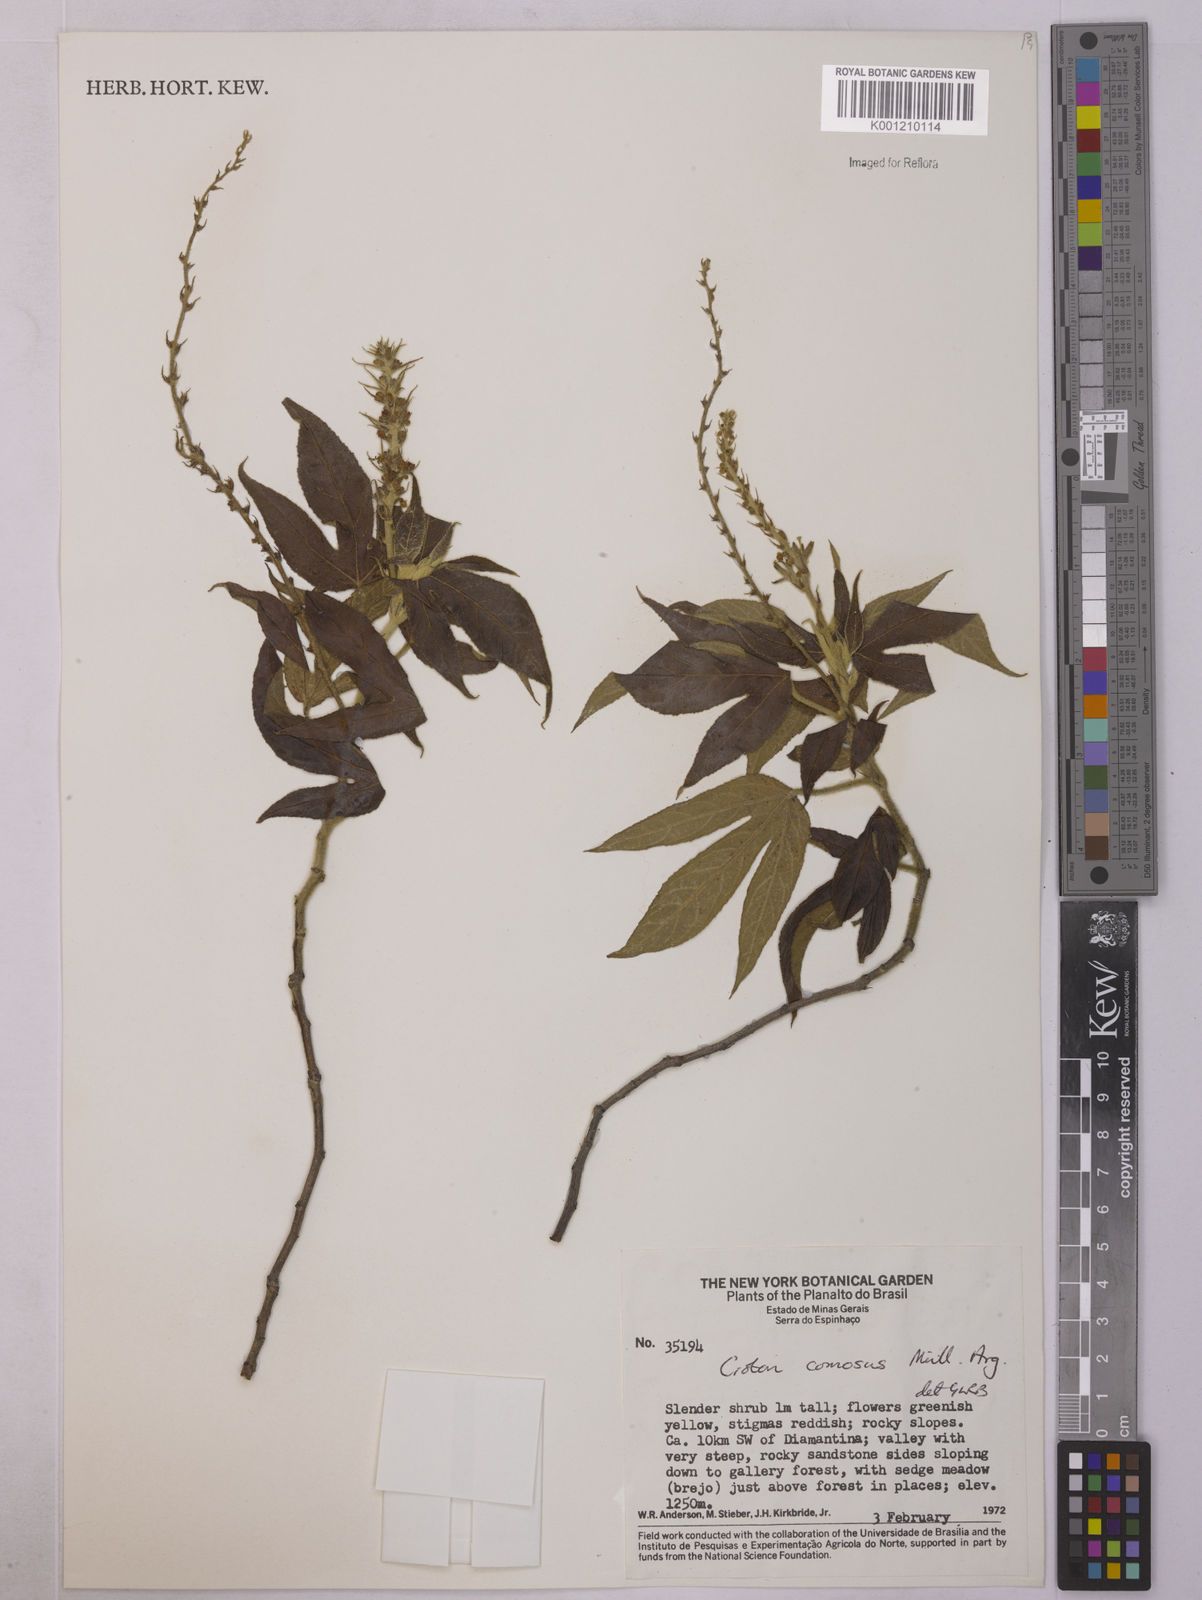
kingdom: Plantae
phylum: Tracheophyta
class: Magnoliopsida
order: Malpighiales
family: Euphorbiaceae
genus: Astraea
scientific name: Astraea
